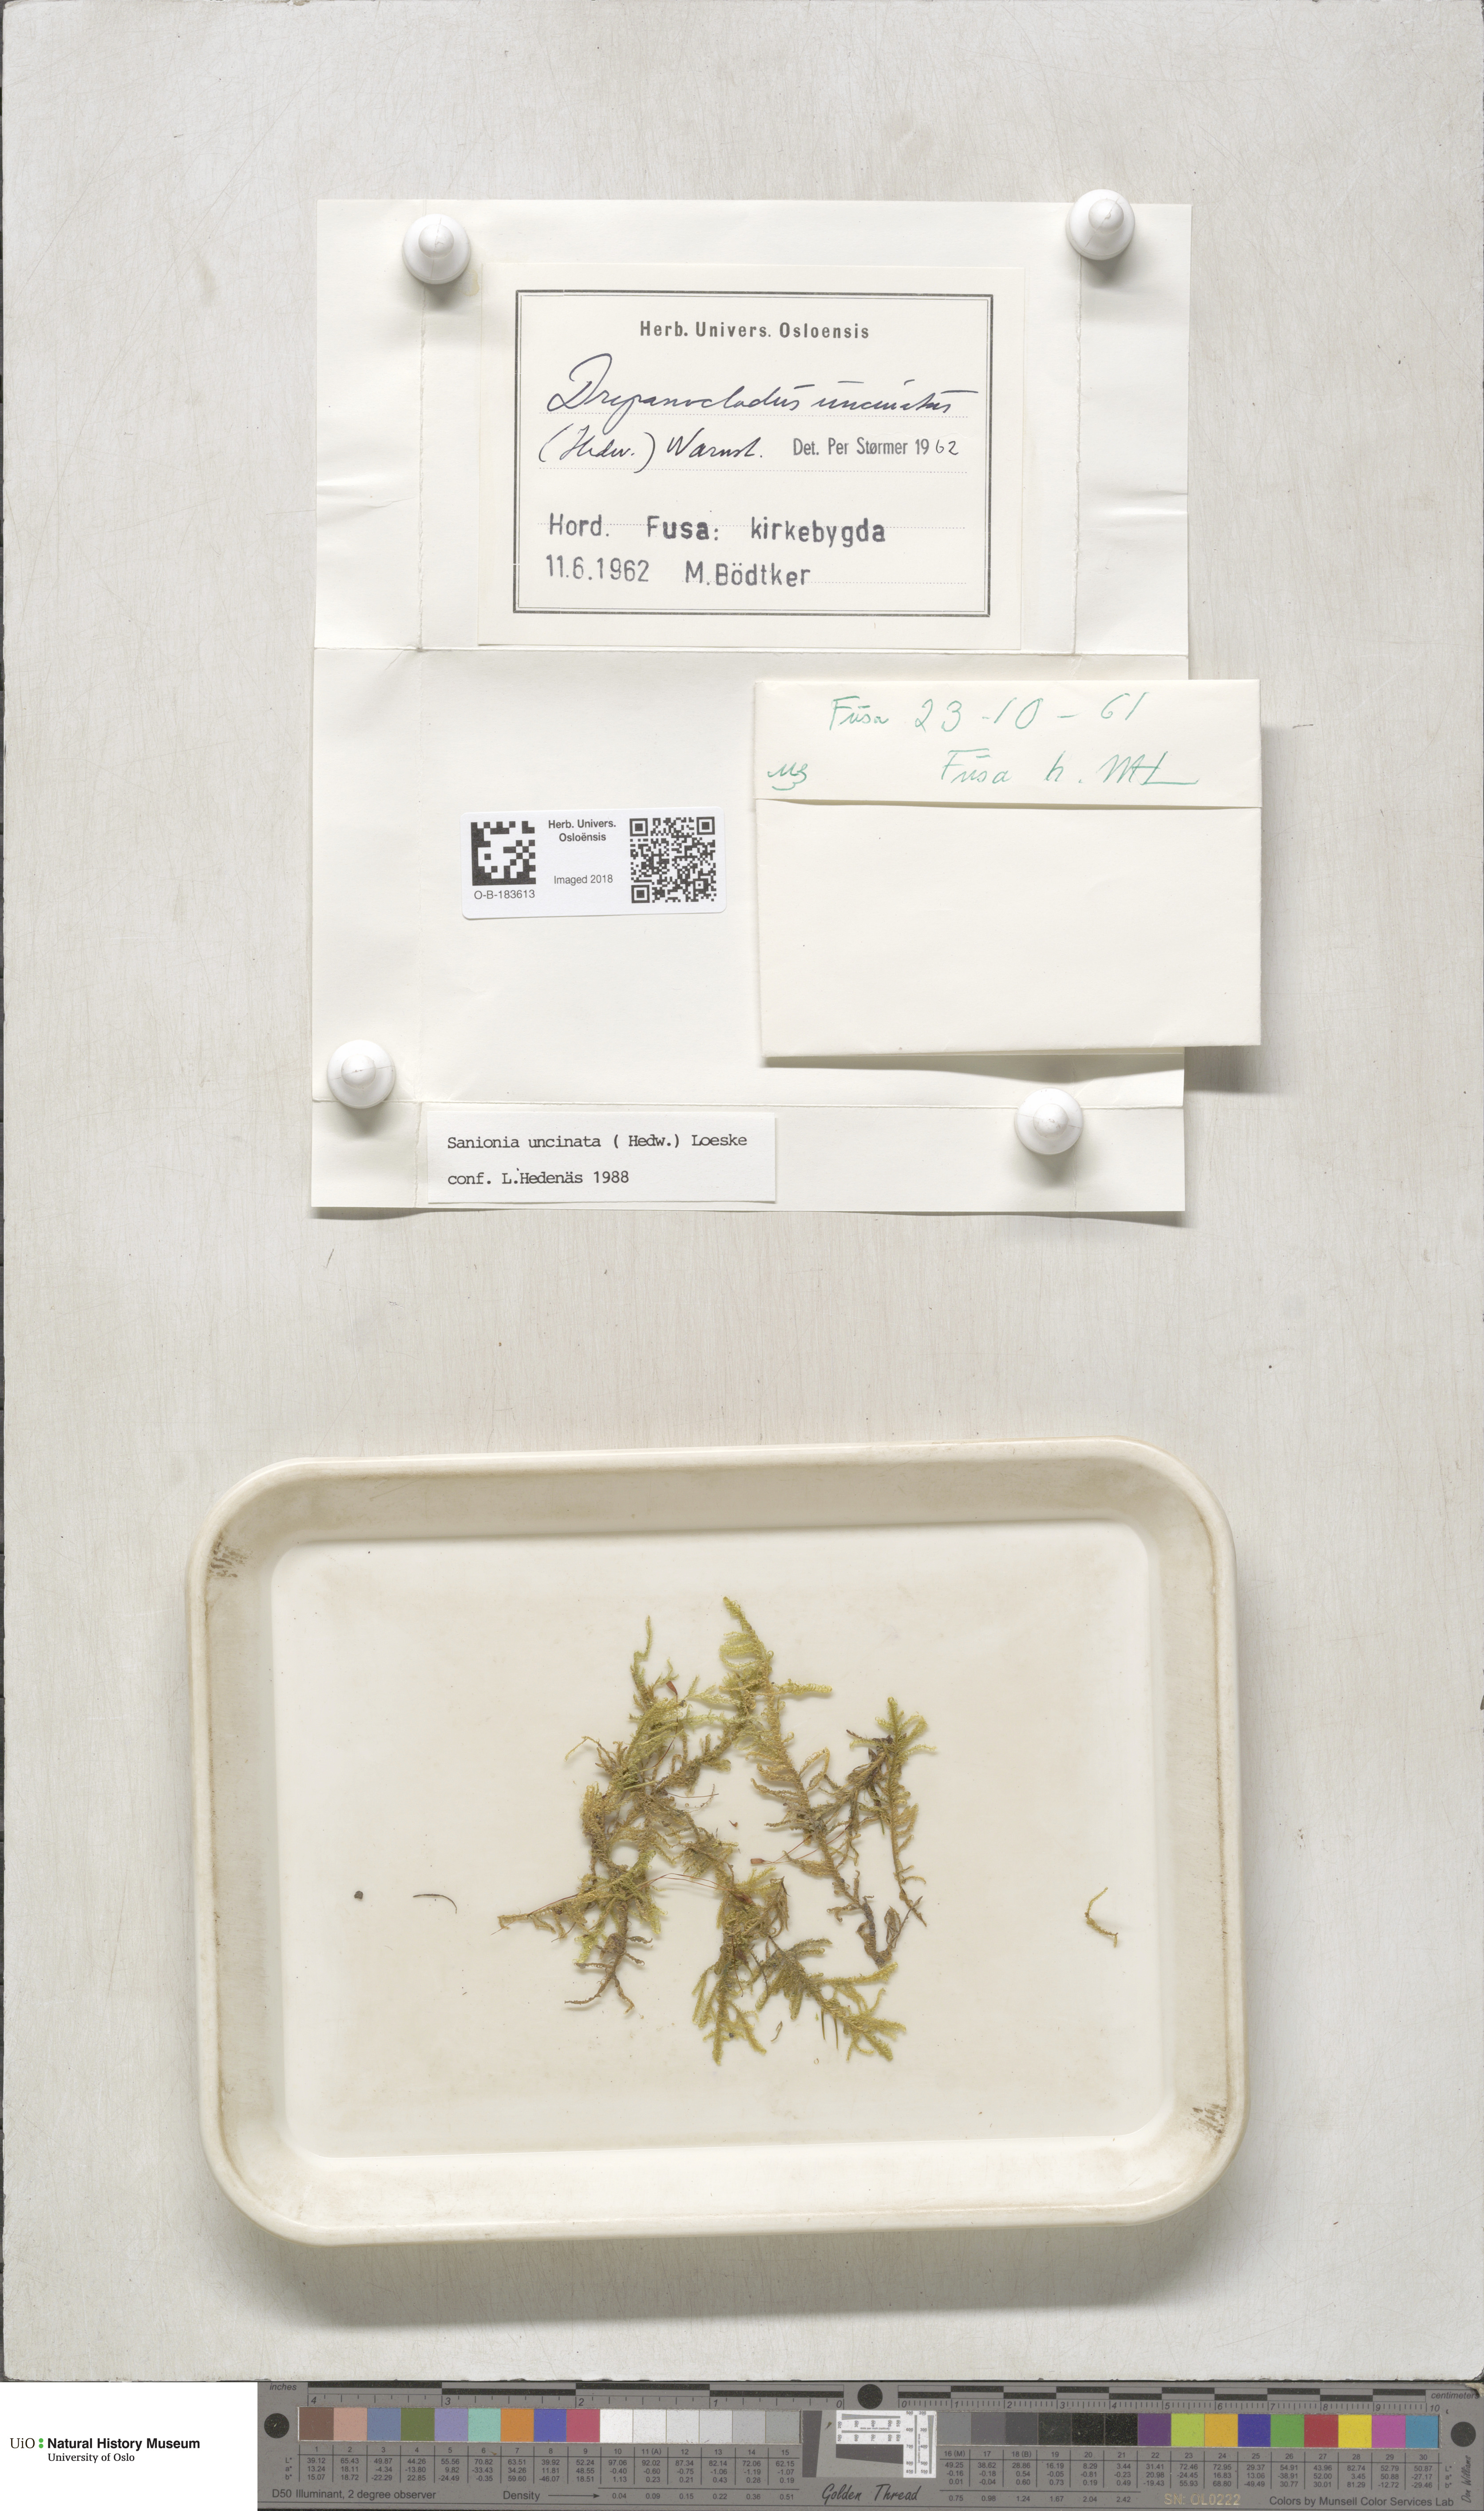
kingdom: Plantae
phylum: Bryophyta
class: Bryopsida
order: Hypnales
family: Scorpidiaceae
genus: Sanionia
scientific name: Sanionia uncinata
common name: Sickle moss
